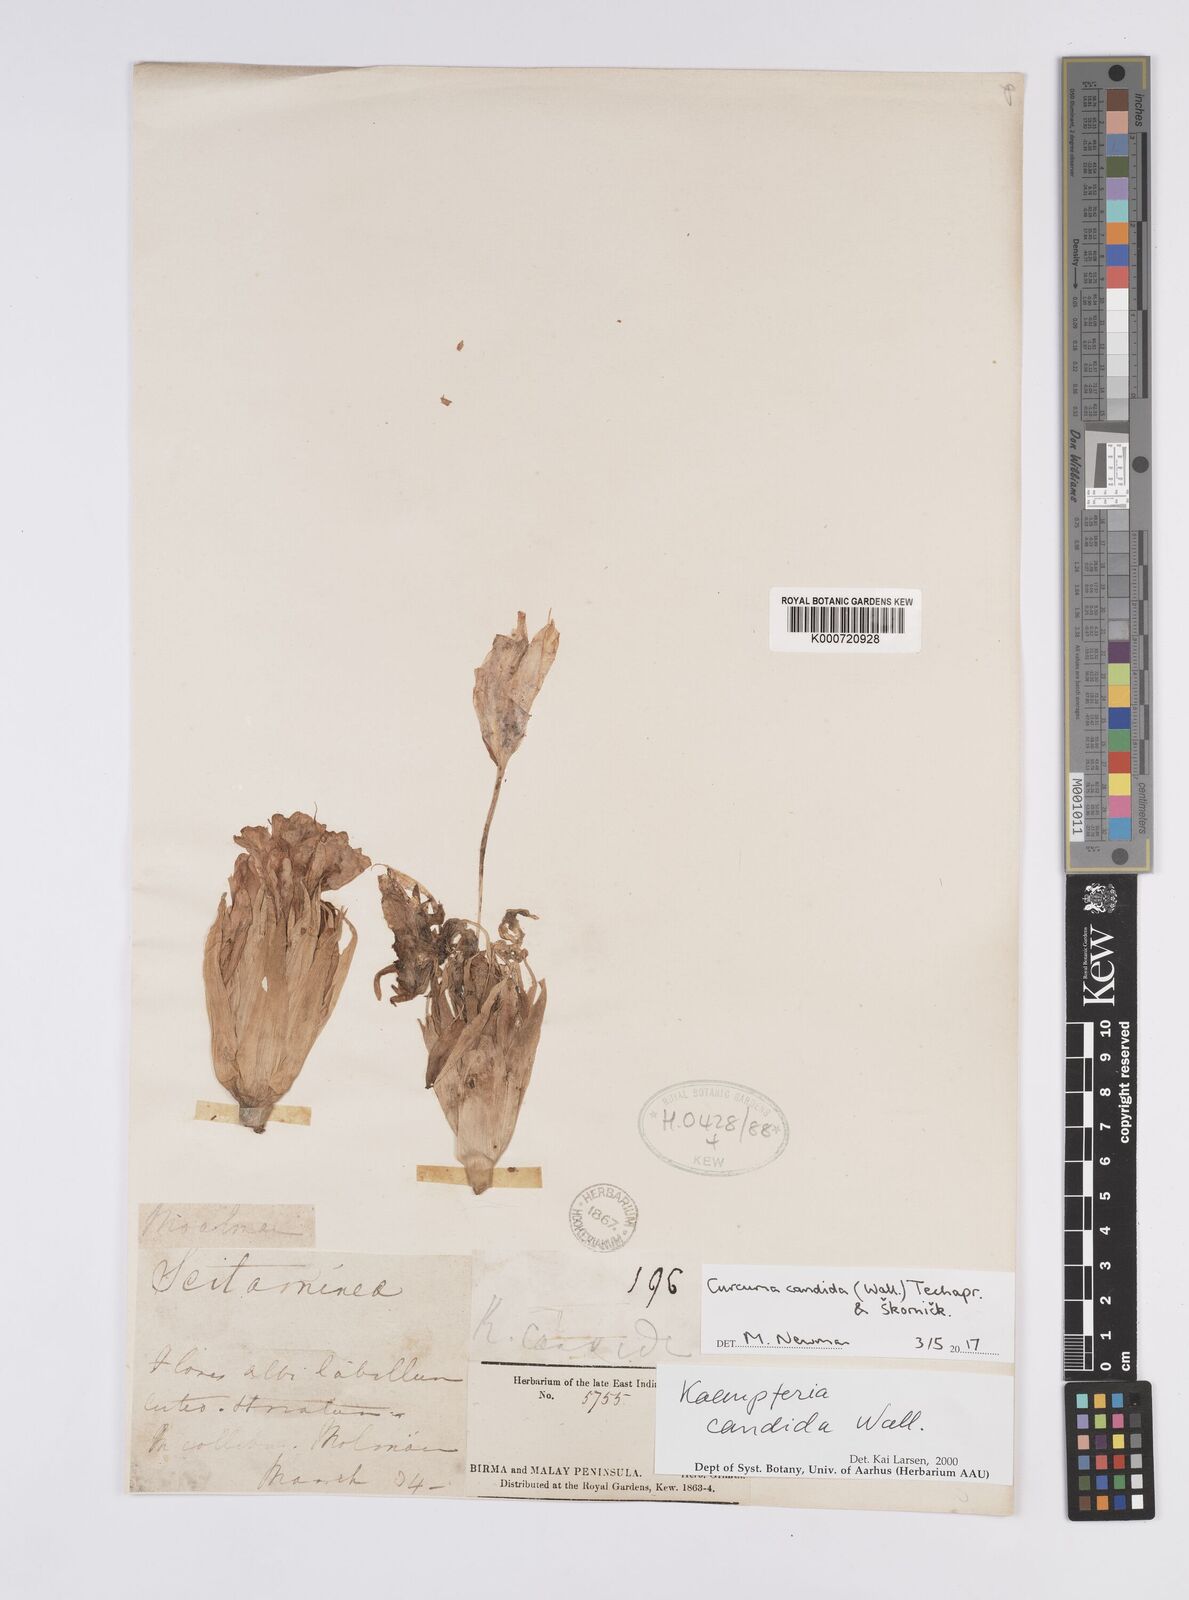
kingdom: Plantae
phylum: Tracheophyta
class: Liliopsida
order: Zingiberales
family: Zingiberaceae
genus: Curcuma
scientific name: Curcuma
